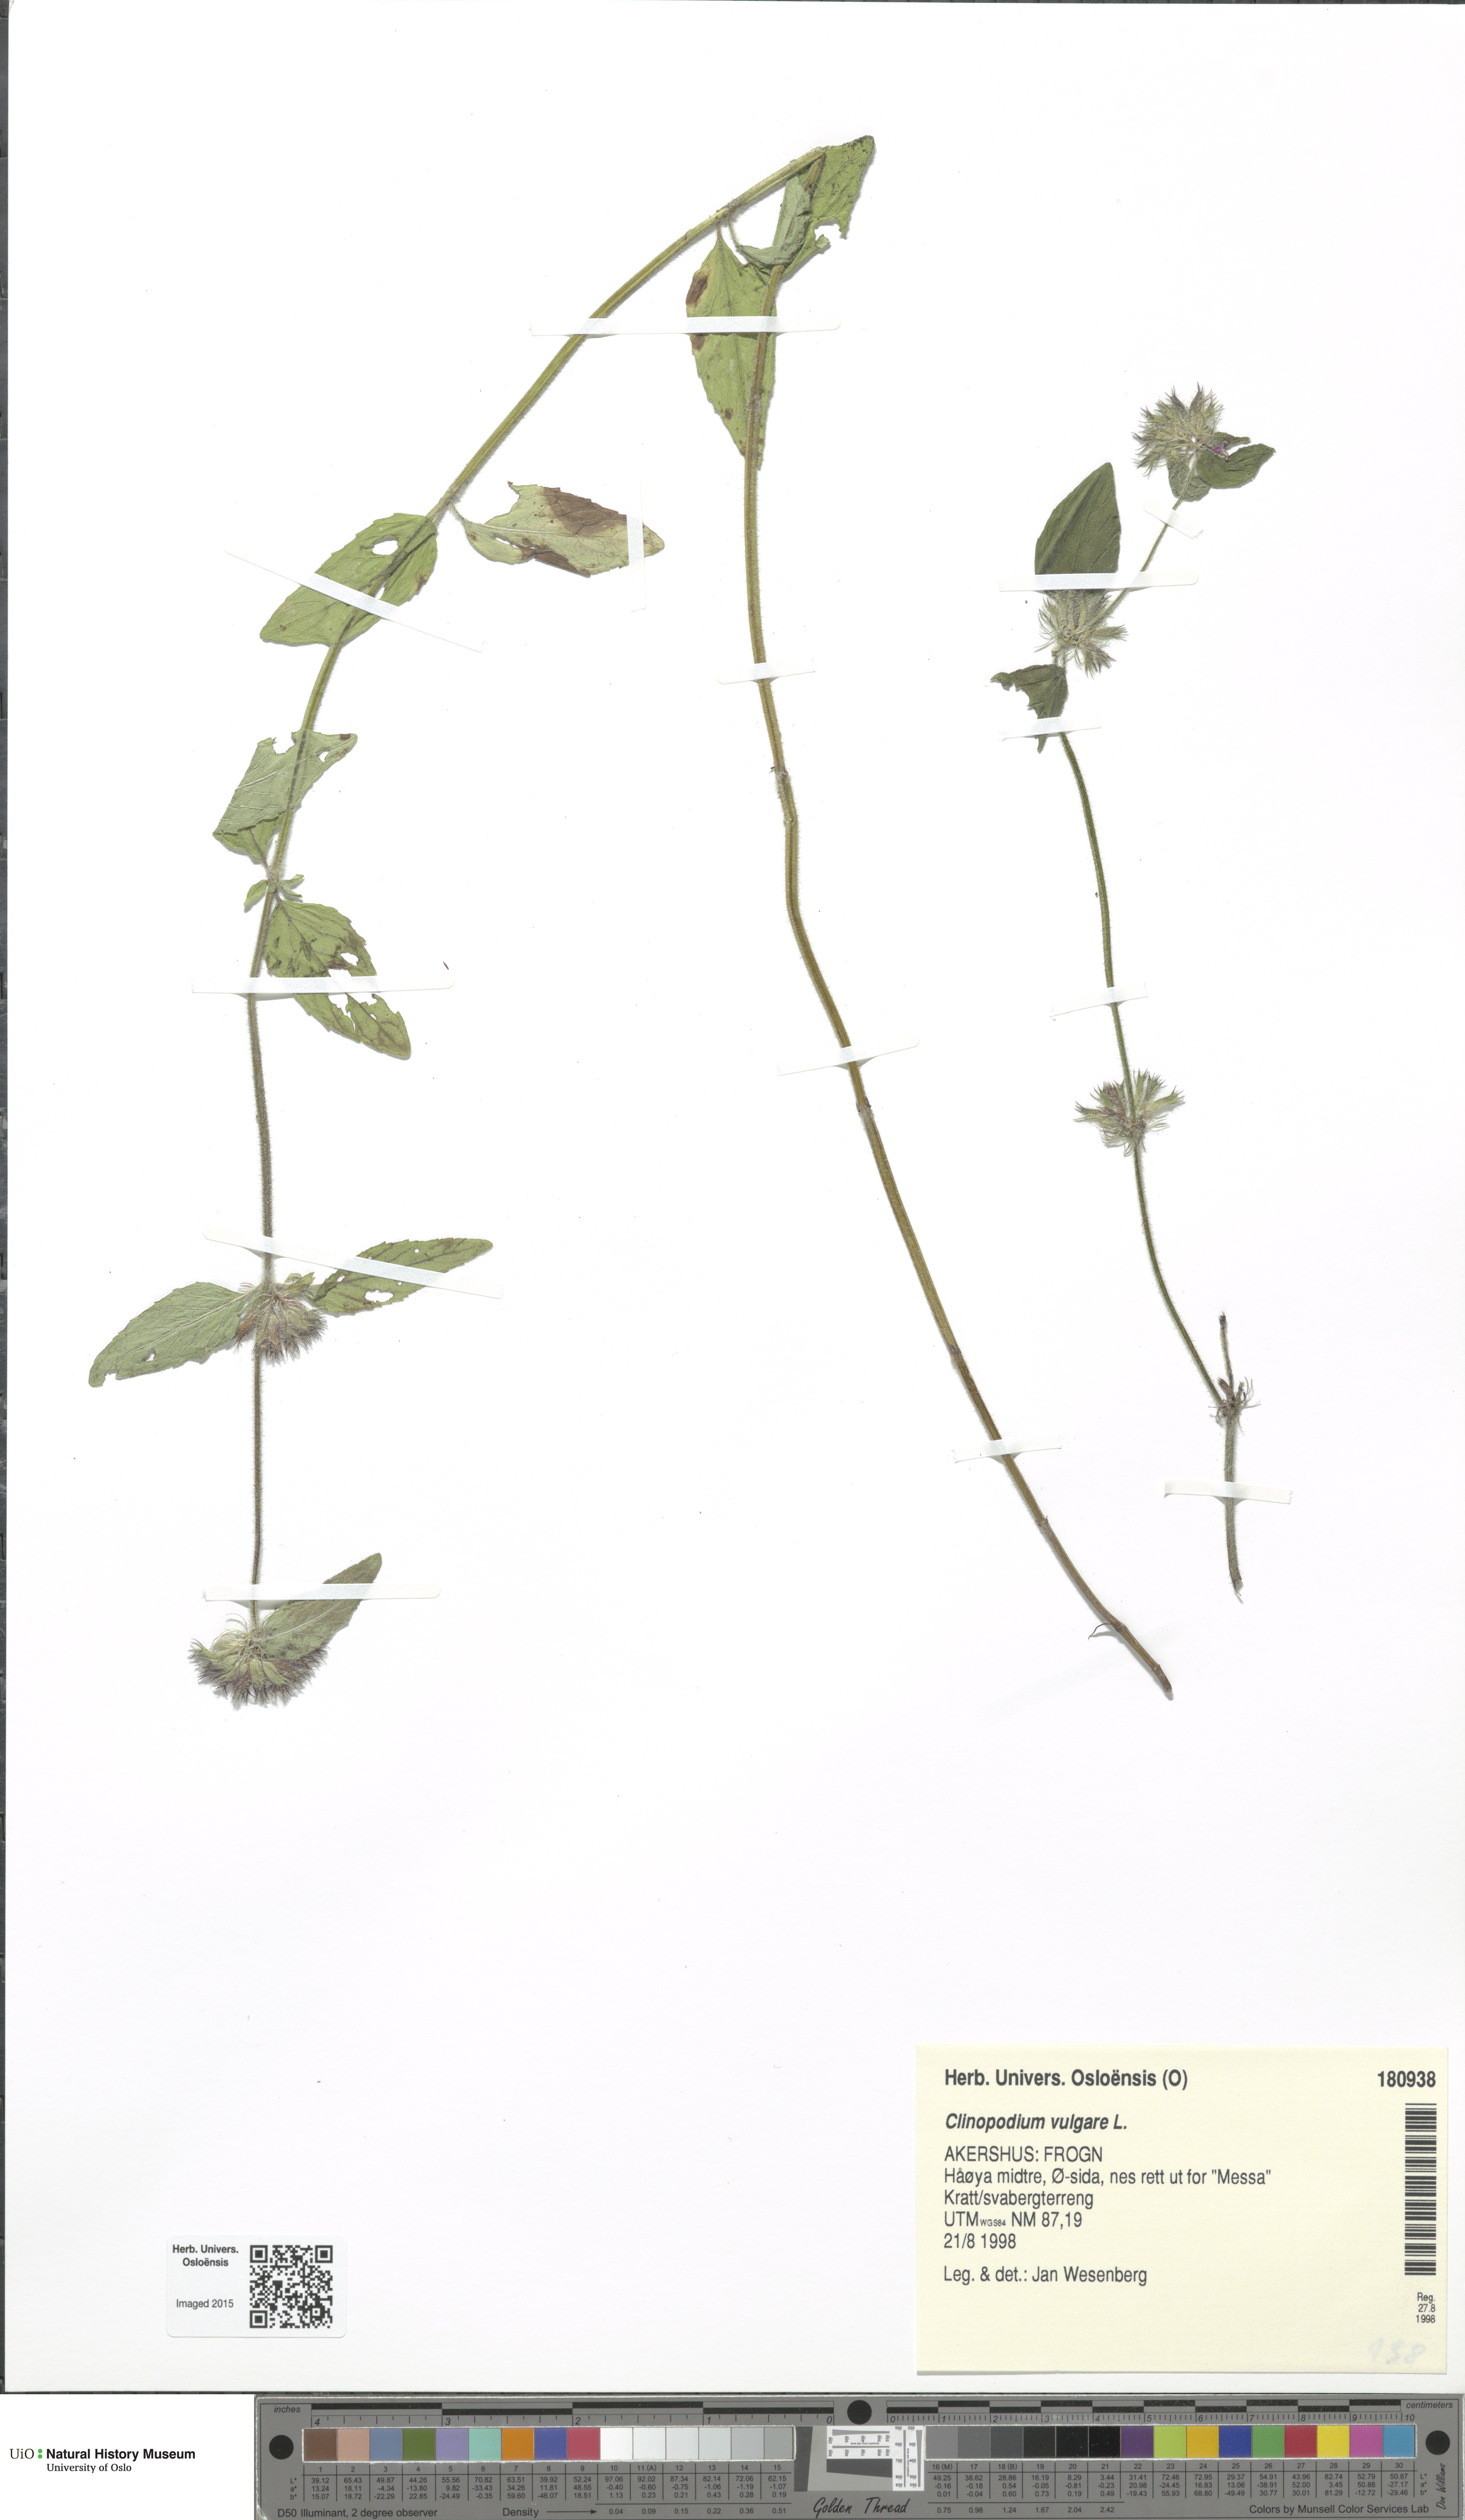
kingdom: Plantae
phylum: Tracheophyta
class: Magnoliopsida
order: Lamiales
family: Lamiaceae
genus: Clinopodium
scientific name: Clinopodium vulgare
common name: Wild basil
